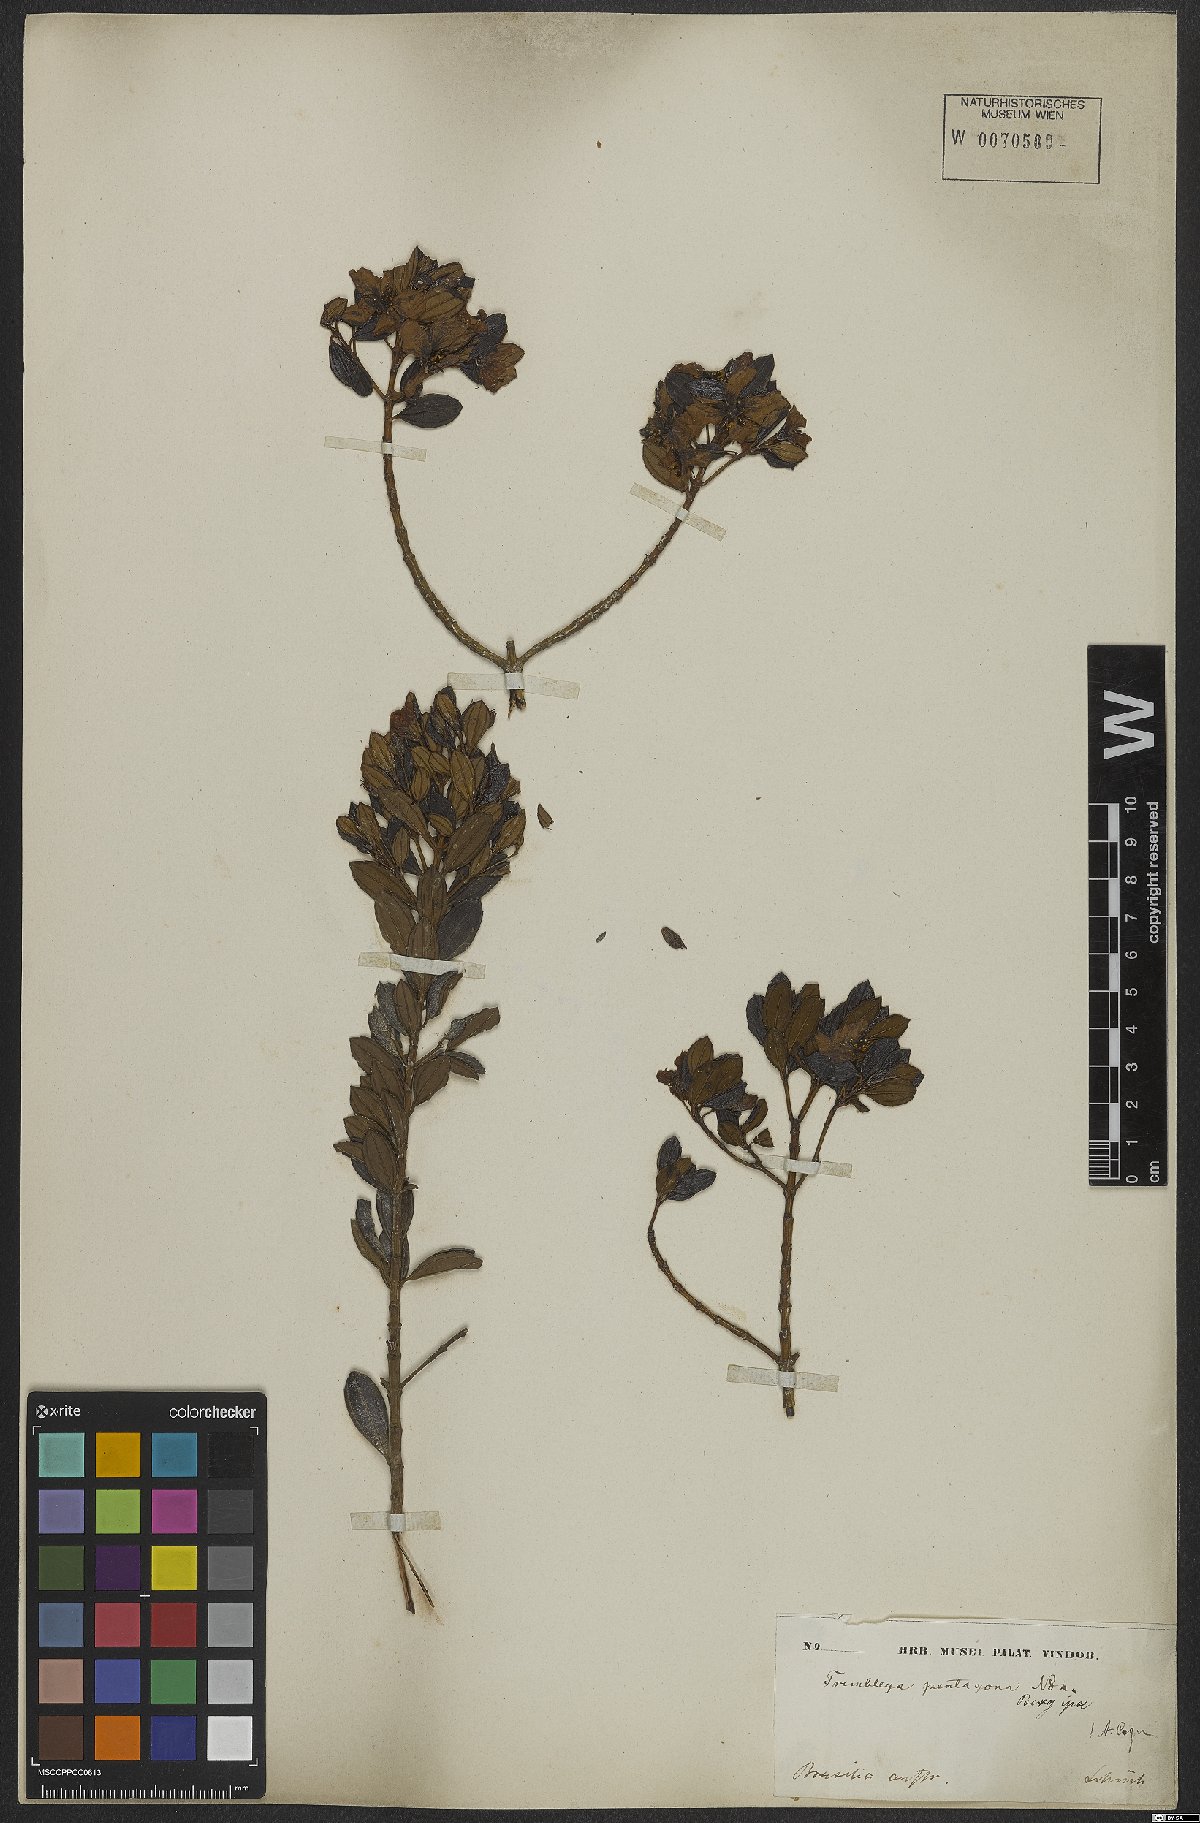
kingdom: Plantae
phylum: Tracheophyta
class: Magnoliopsida
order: Myrtales
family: Melastomataceae
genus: Microlicia
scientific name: Microlicia pentagona
